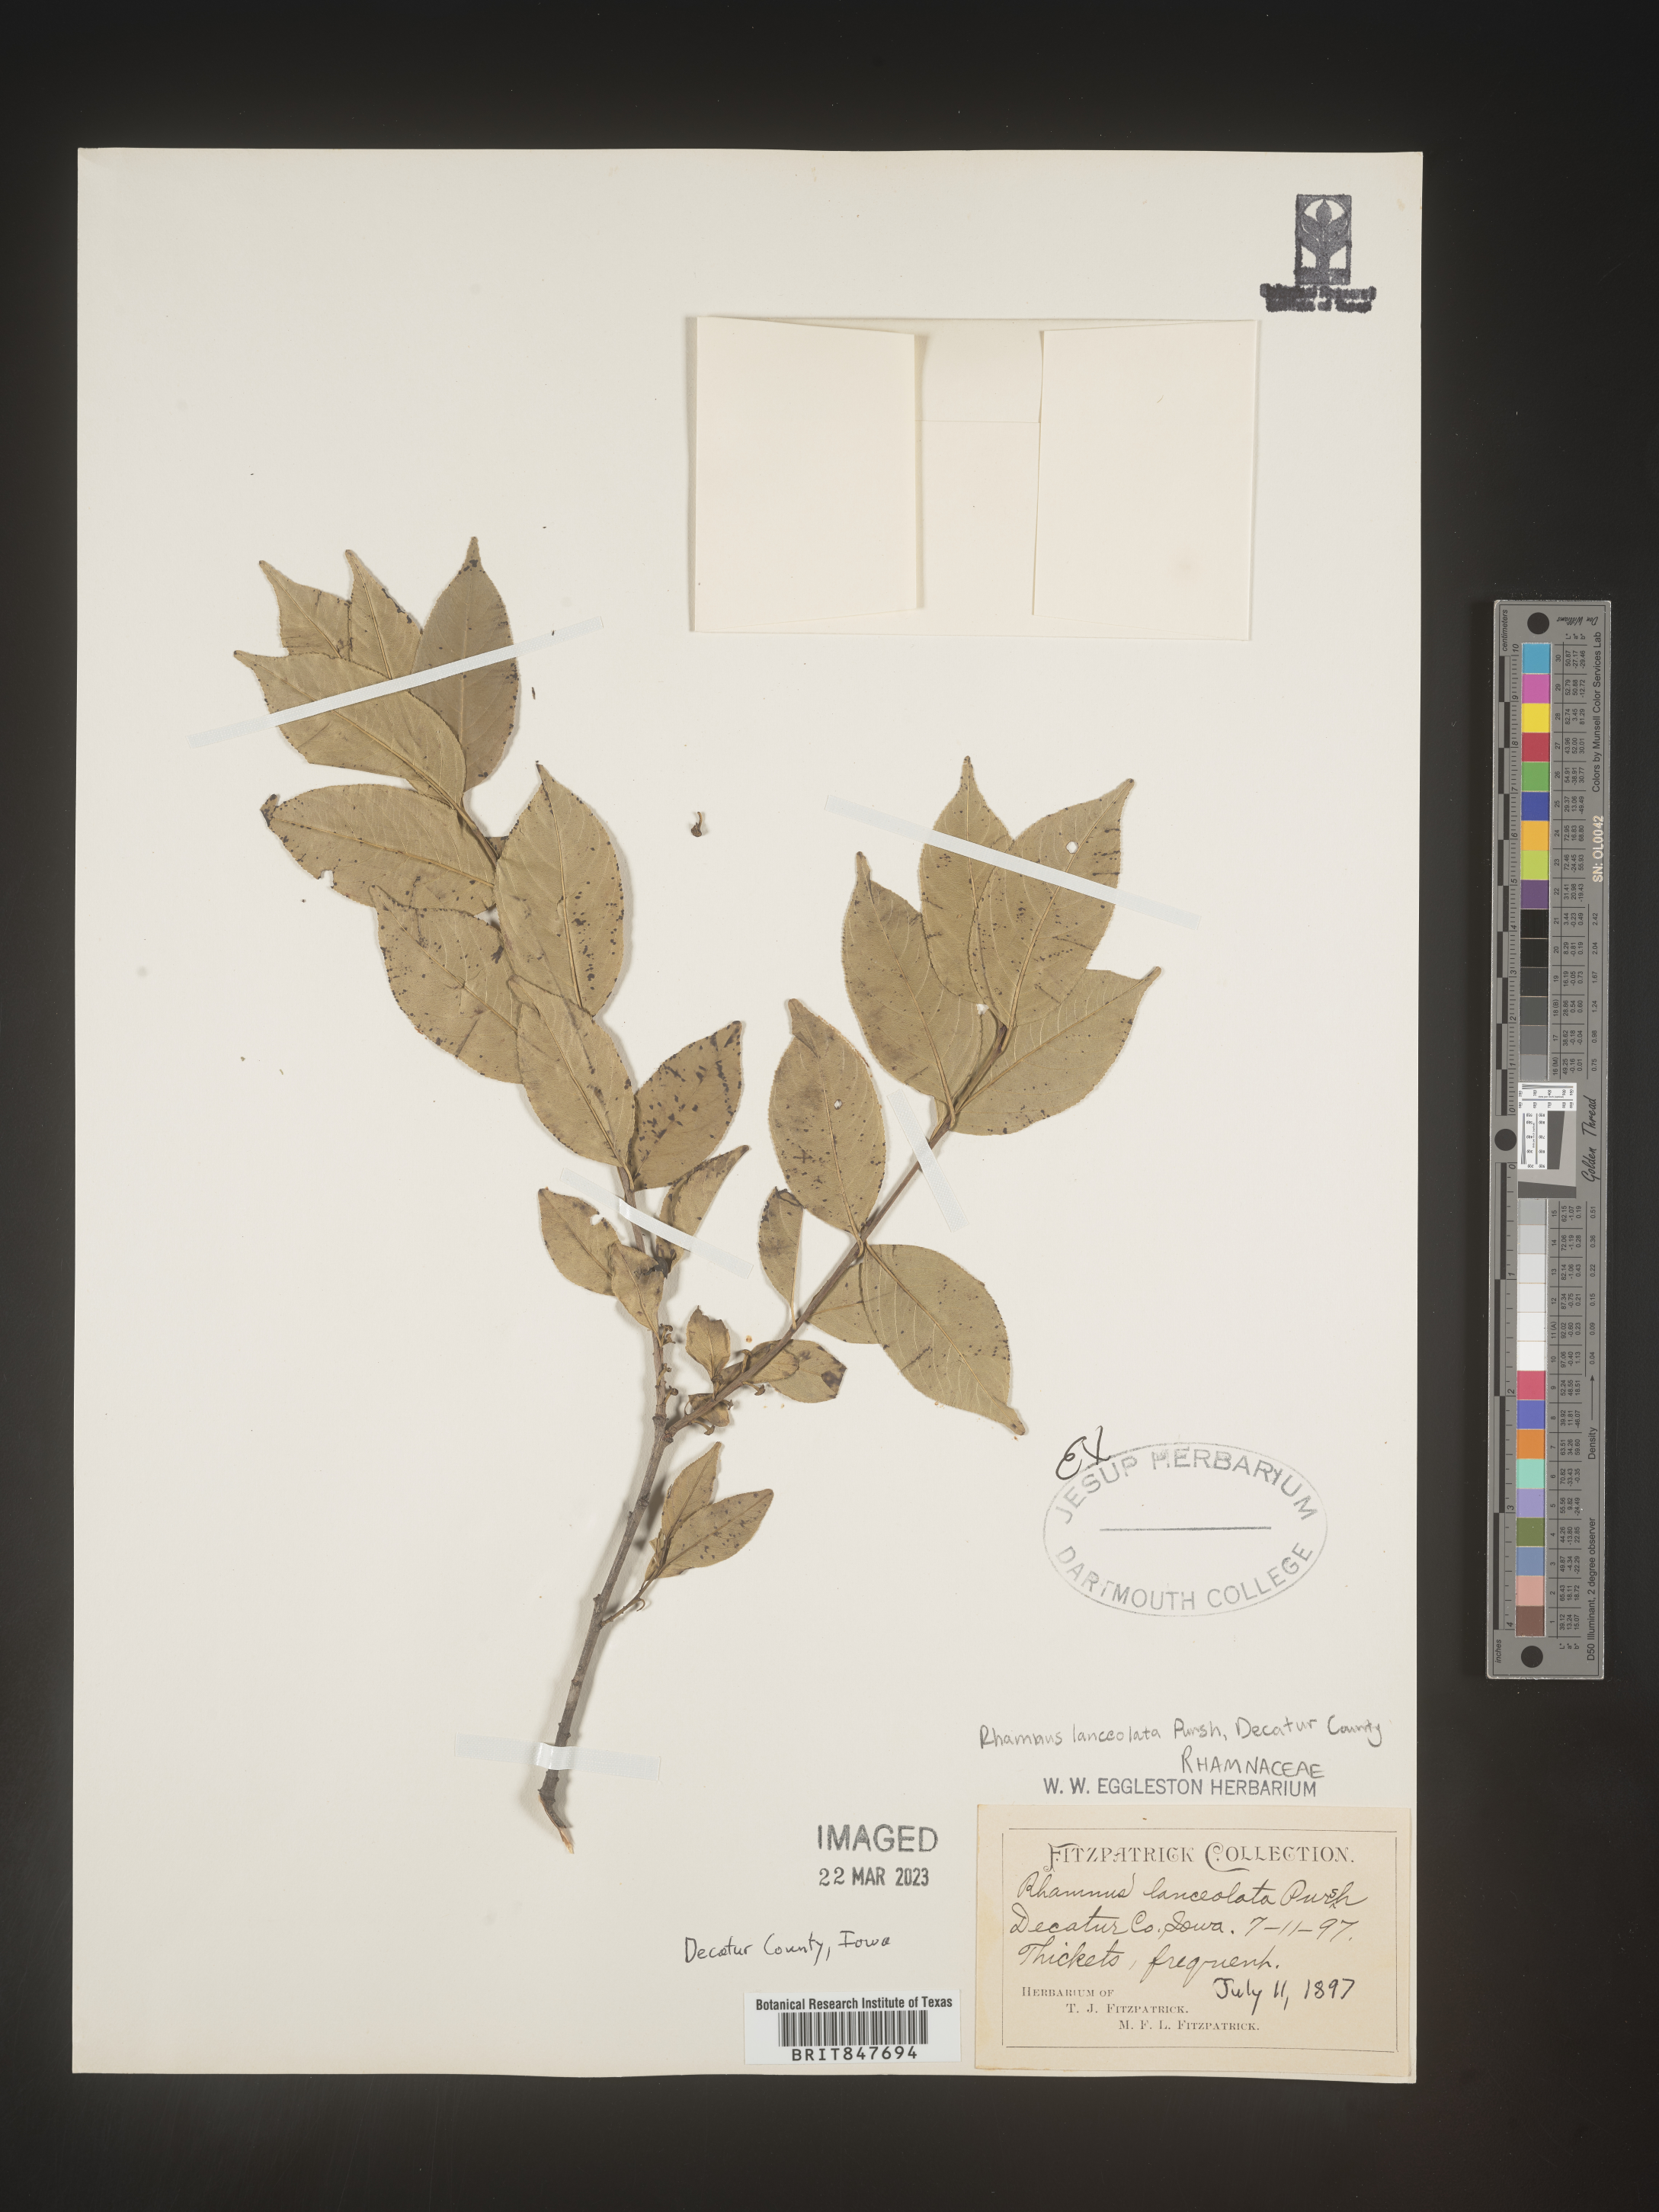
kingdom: Plantae
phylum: Tracheophyta
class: Magnoliopsida
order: Rosales
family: Rhamnaceae
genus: Endotropis
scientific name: Endotropis lanceolata
